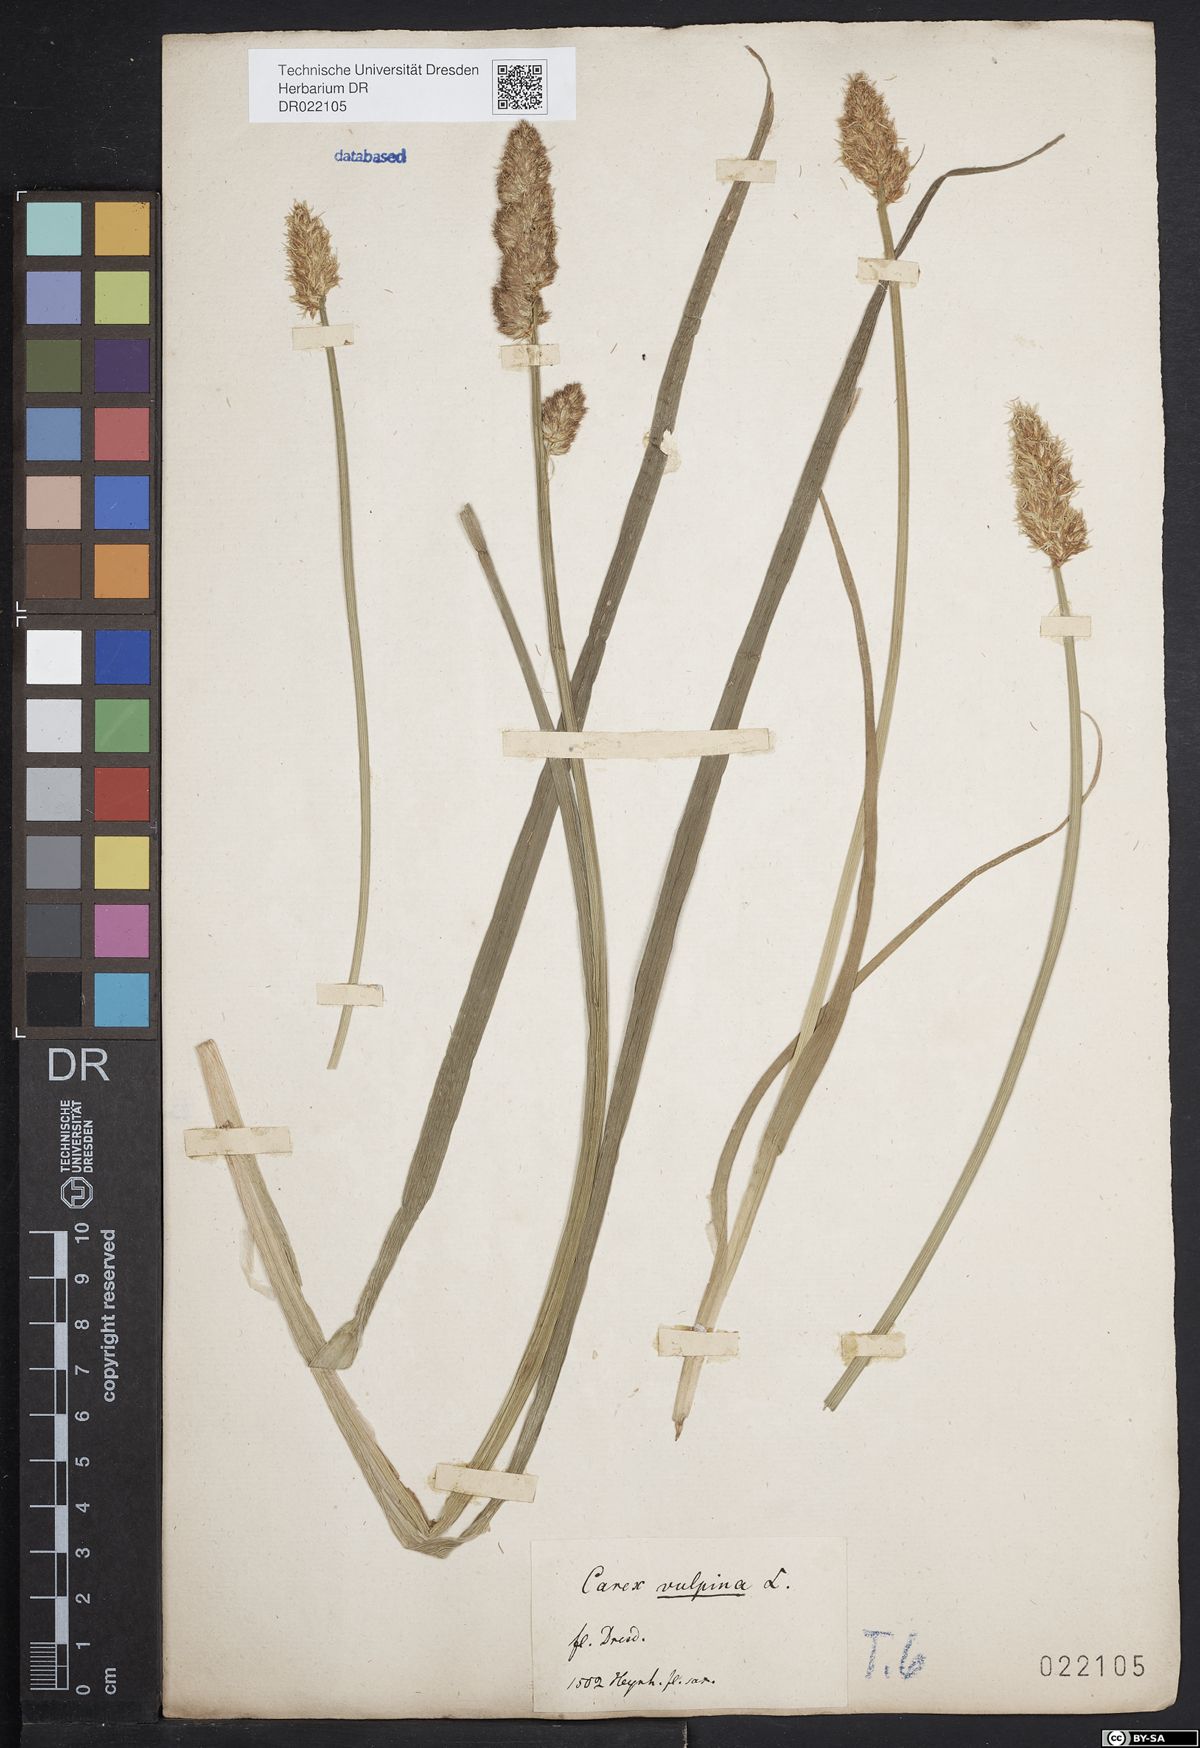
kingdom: Plantae
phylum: Tracheophyta
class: Liliopsida
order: Poales
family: Cyperaceae
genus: Carex
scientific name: Carex vulpina
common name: True fox-sedge
